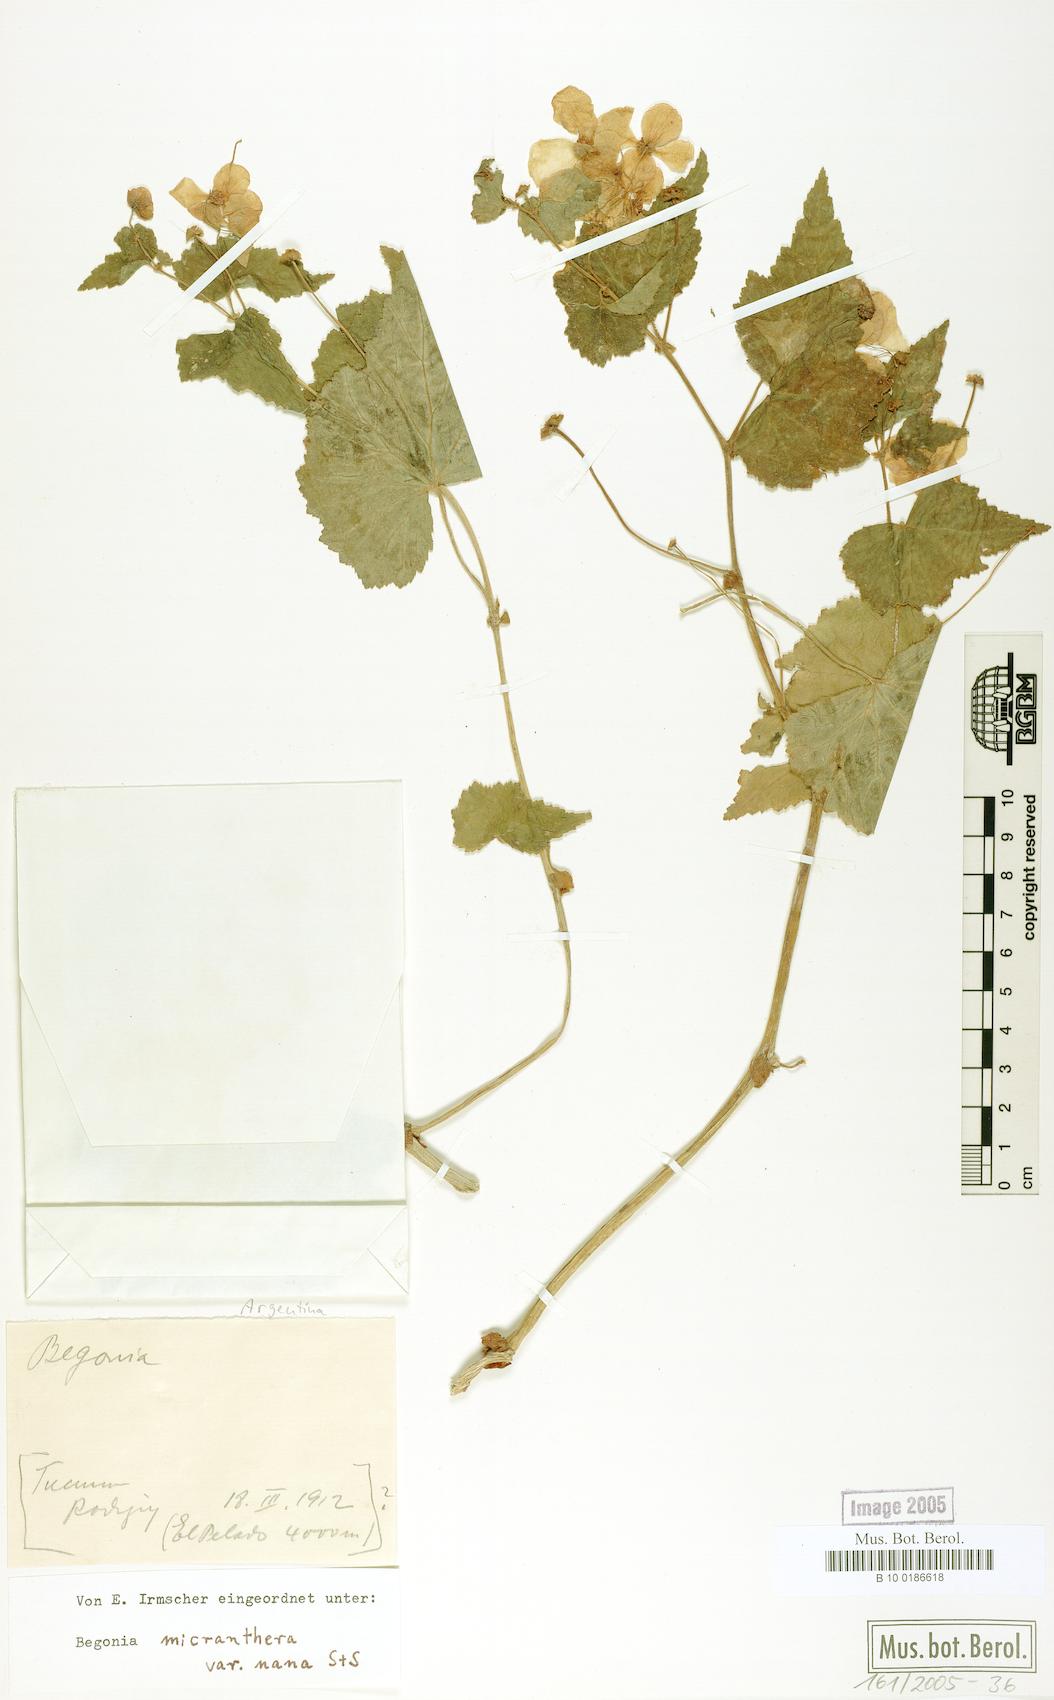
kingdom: Plantae
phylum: Tracheophyta
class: Magnoliopsida
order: Cucurbitales
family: Begoniaceae
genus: Begonia
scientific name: Begonia micranthera
